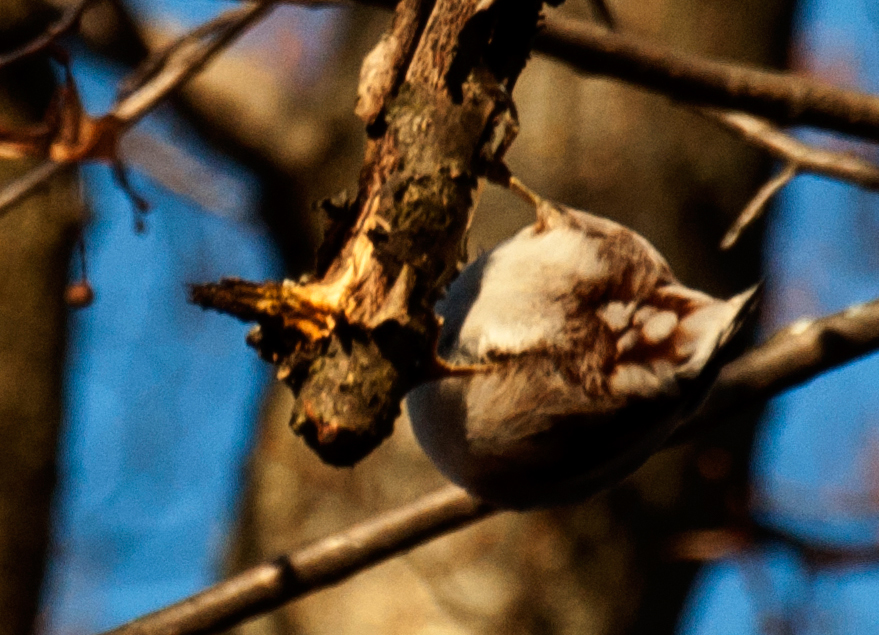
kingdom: Animalia
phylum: Chordata
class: Aves
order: Passeriformes
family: Sittidae
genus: Sitta
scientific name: Sitta europaea
